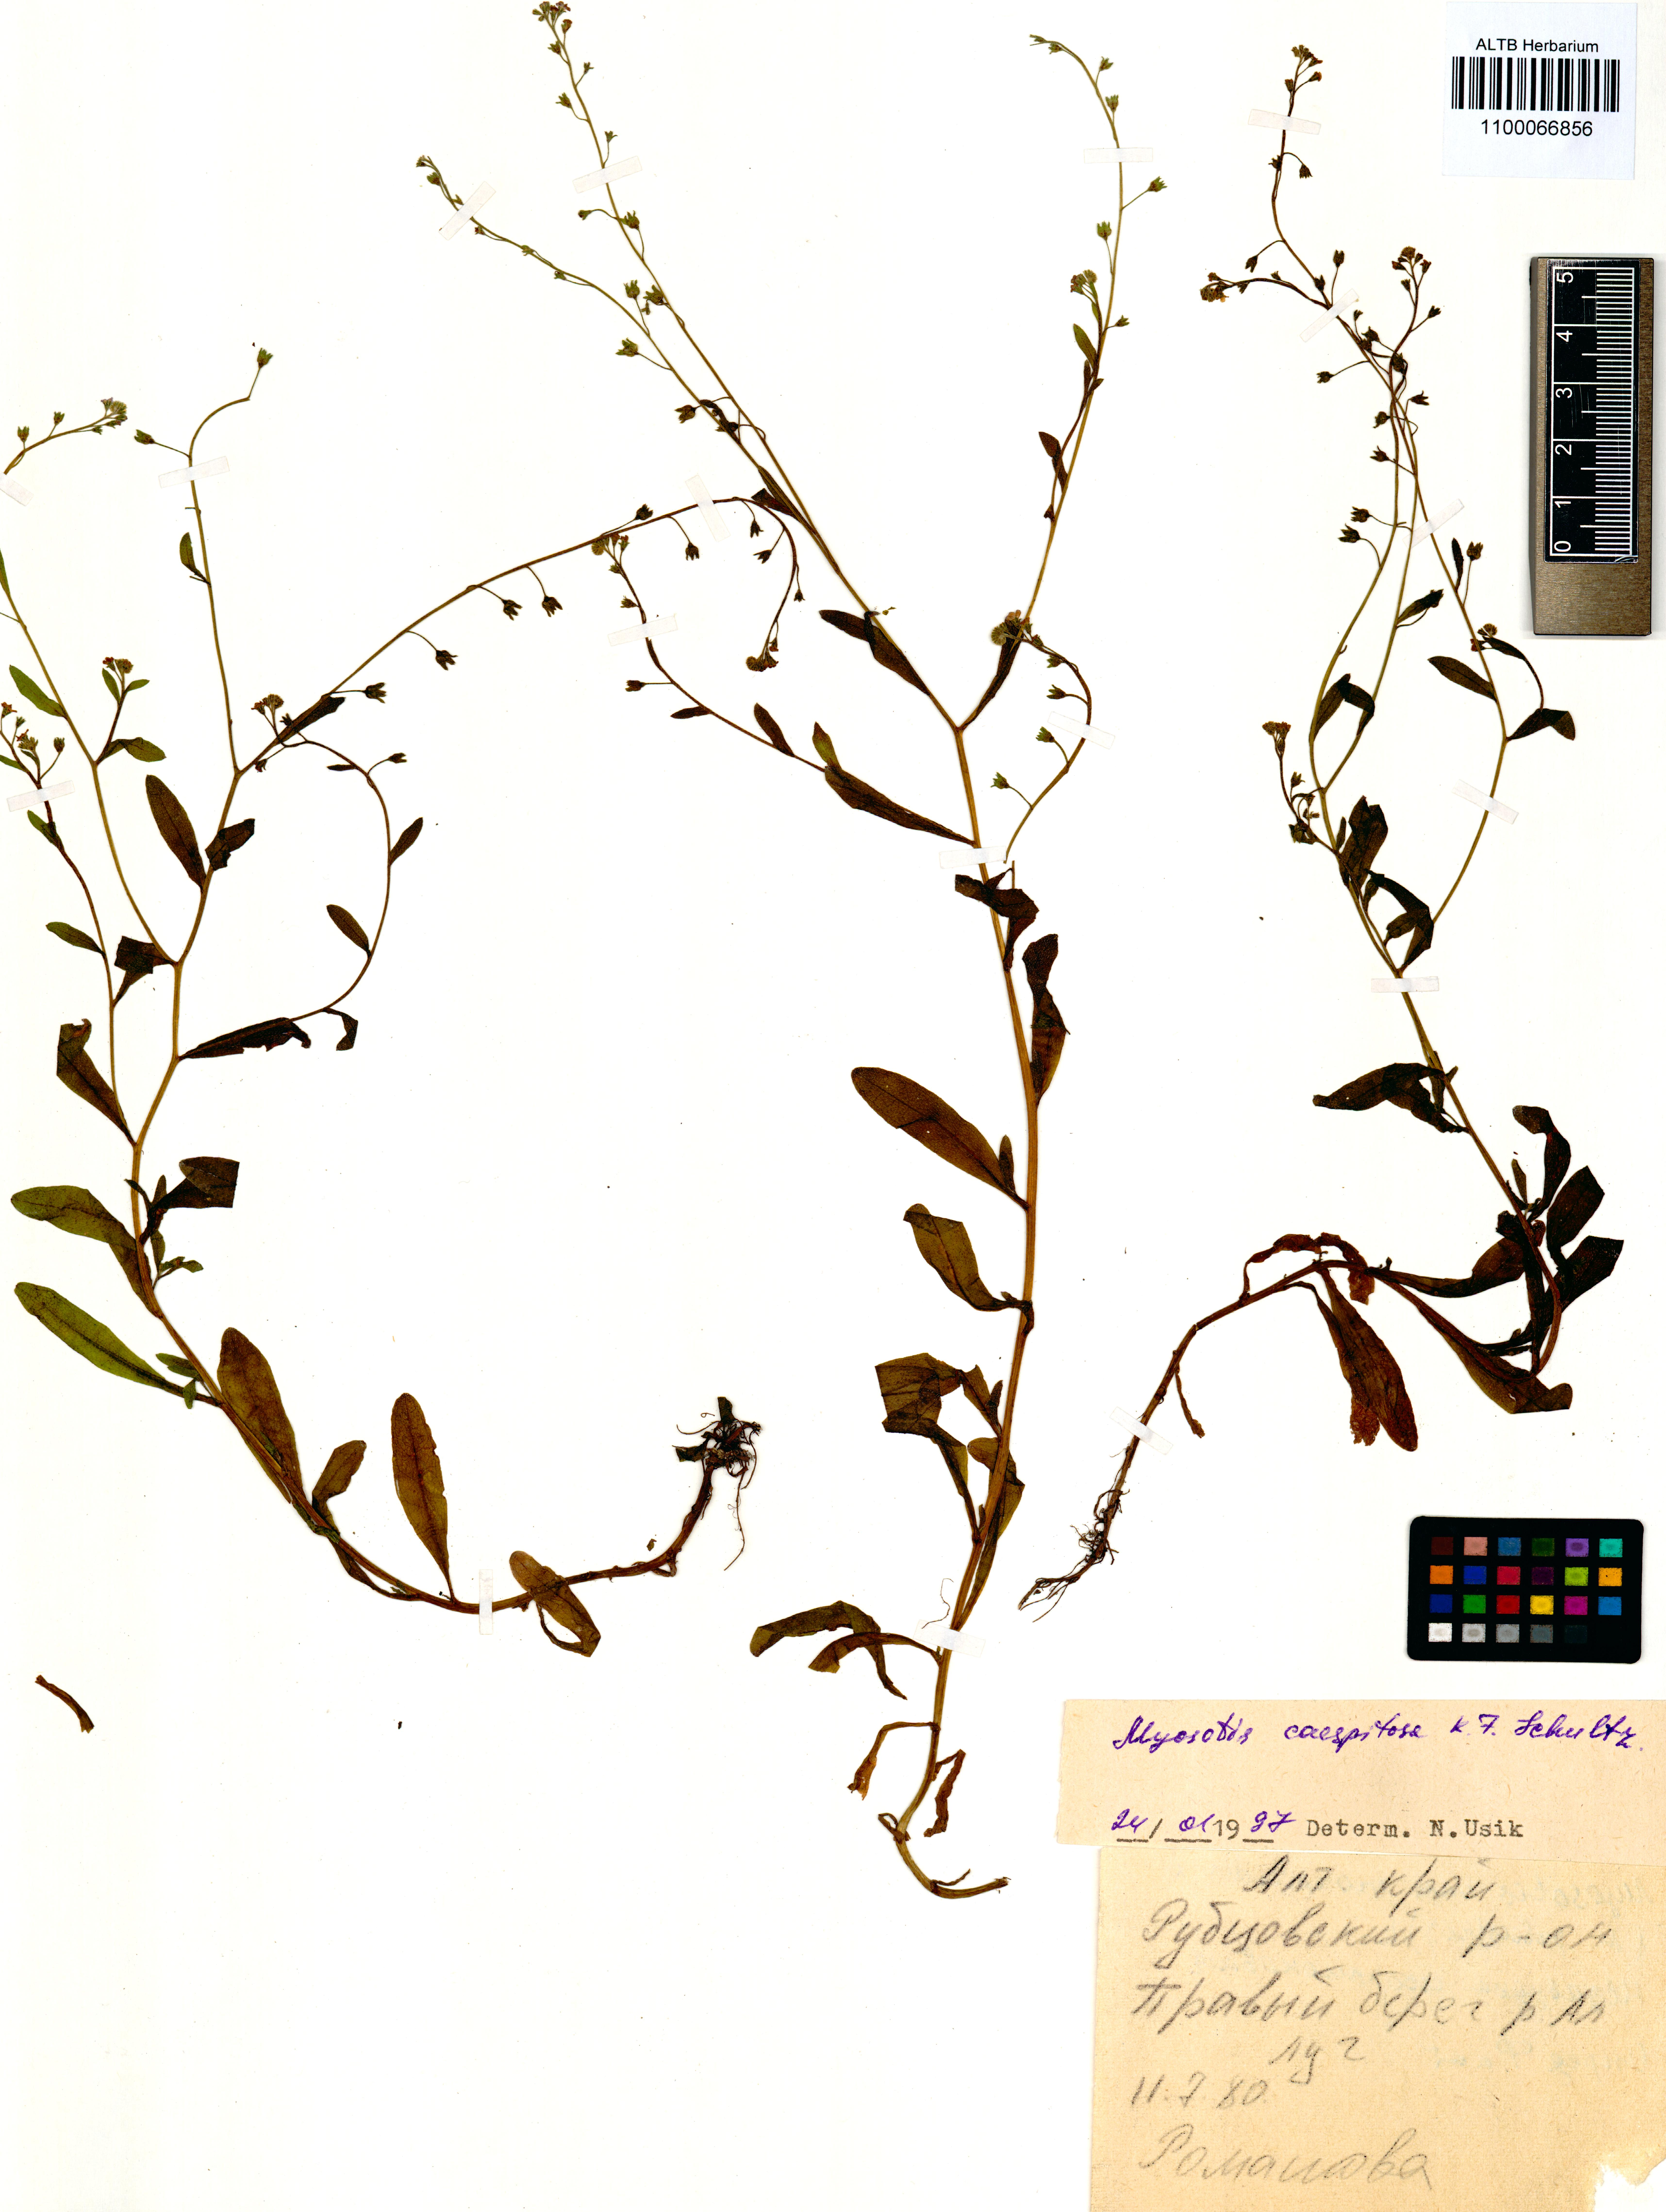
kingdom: Plantae
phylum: Tracheophyta
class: Magnoliopsida
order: Boraginales
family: Boraginaceae
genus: Myosotis
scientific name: Myosotis laxa
